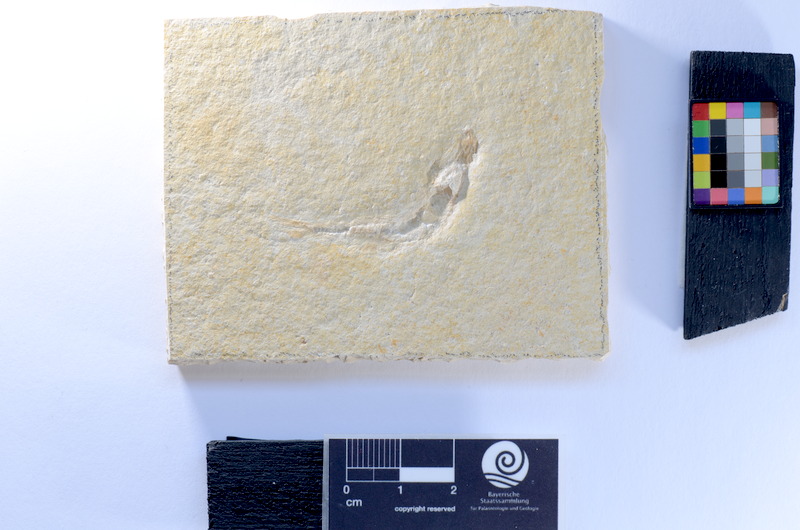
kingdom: Animalia
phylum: Chordata
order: Salmoniformes
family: Orthogonikleithridae
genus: Leptolepides
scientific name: Leptolepides
